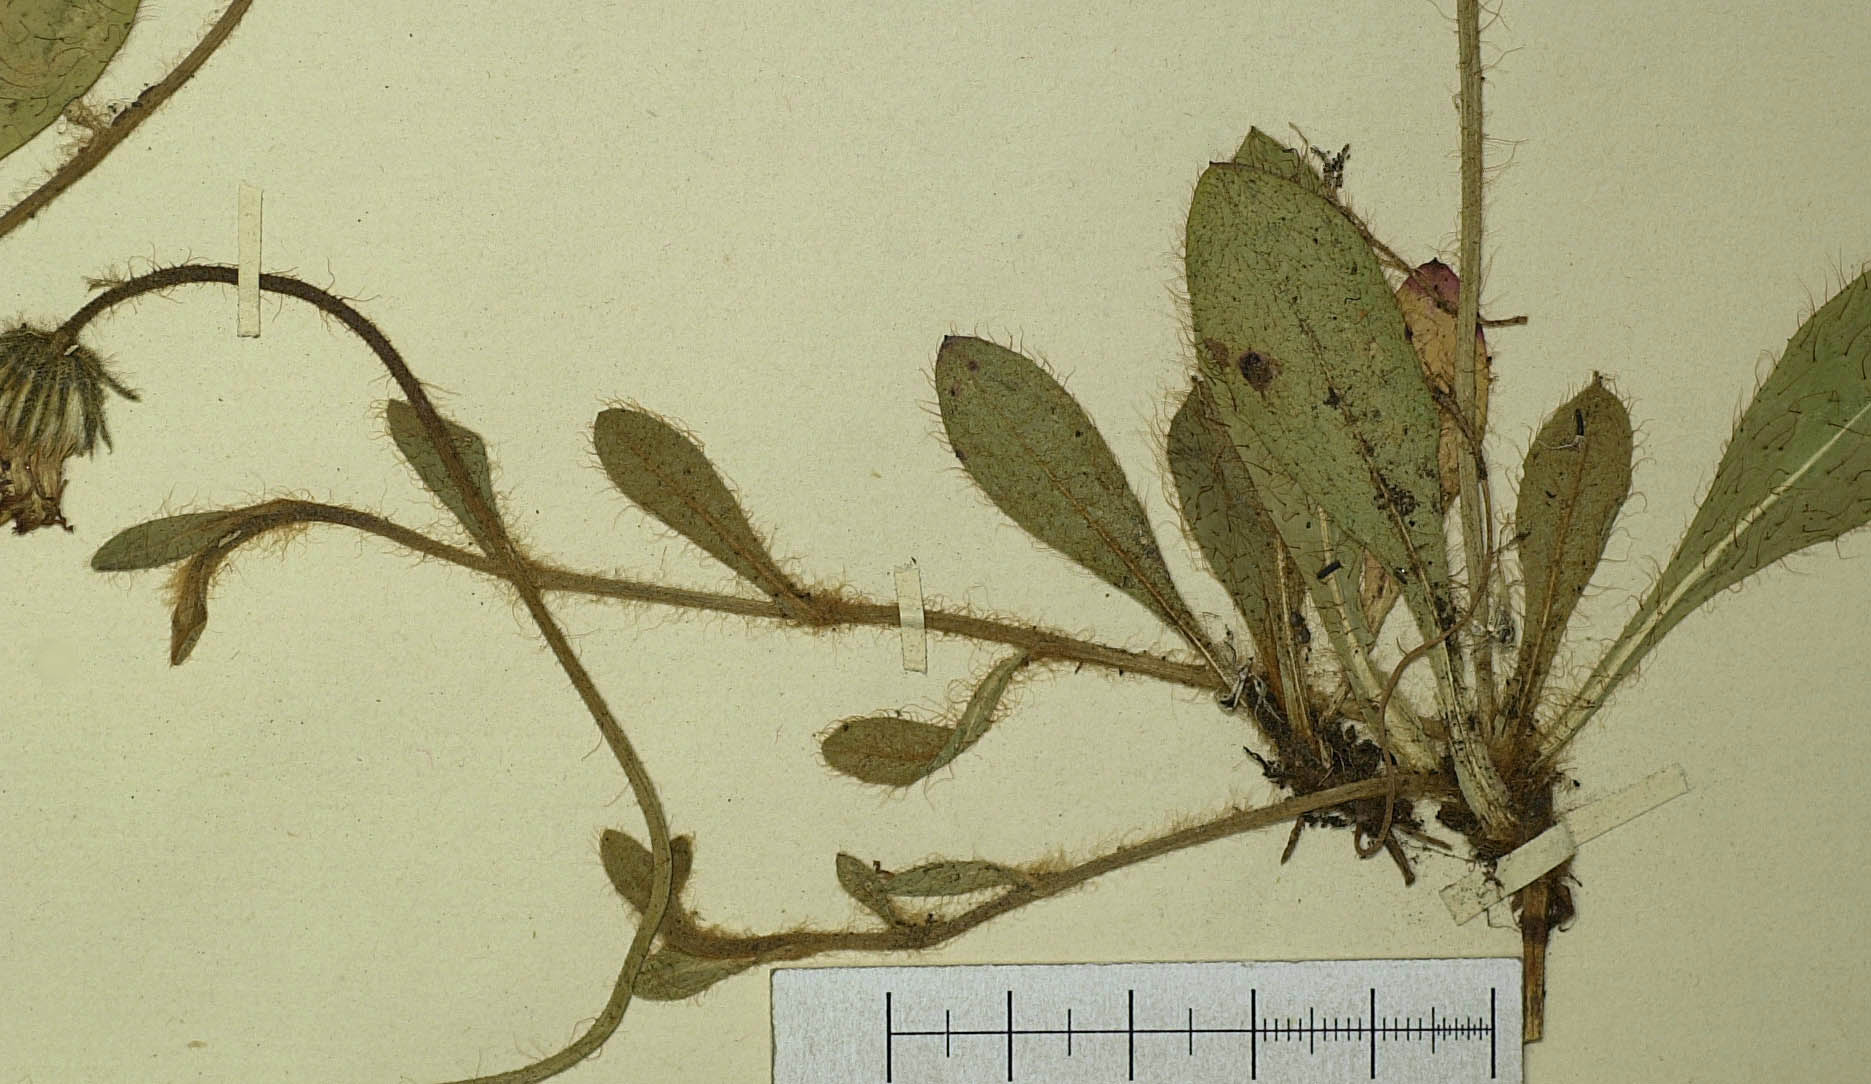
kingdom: Plantae
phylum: Tracheophyta
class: Magnoliopsida
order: Asterales
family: Asteraceae
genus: Pilosella
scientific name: Pilosella officinarum
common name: Mouse-ear hawkweed
